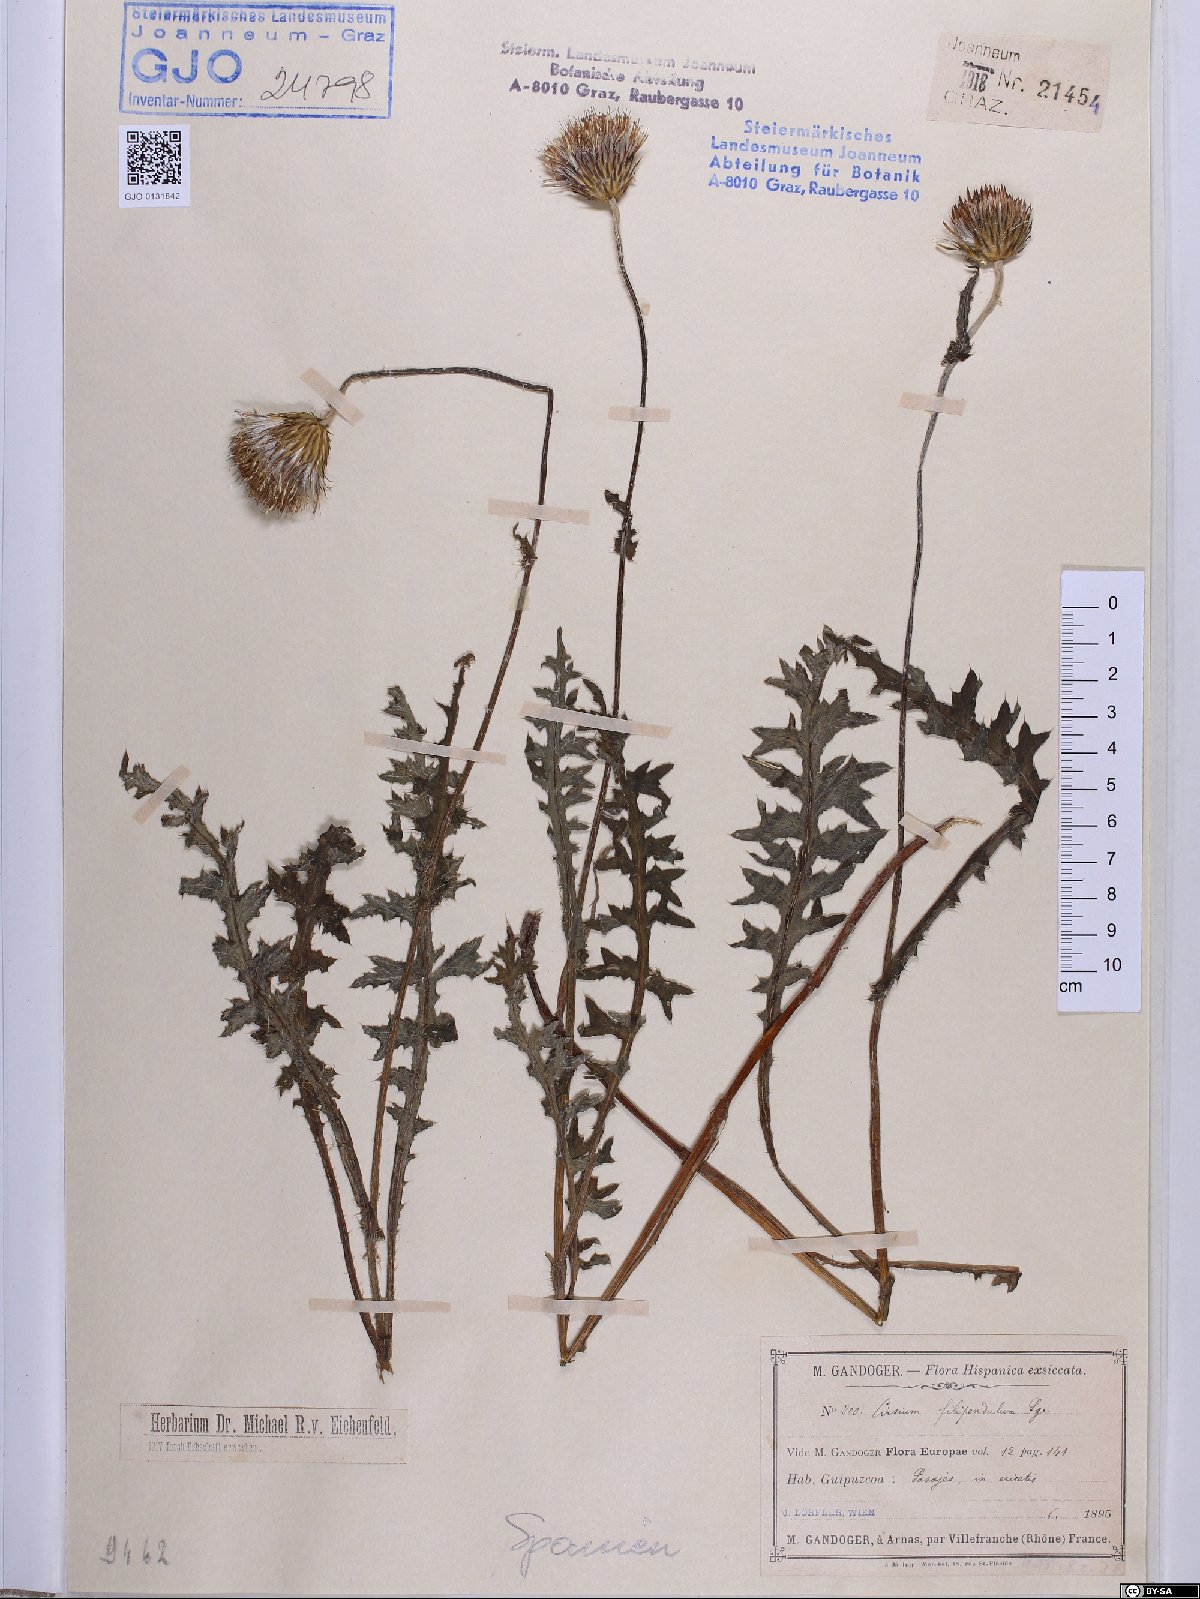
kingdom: Plantae
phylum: Tracheophyta
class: Magnoliopsida
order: Asterales
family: Asteraceae
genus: Cirsium
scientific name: Cirsium filipendulum
